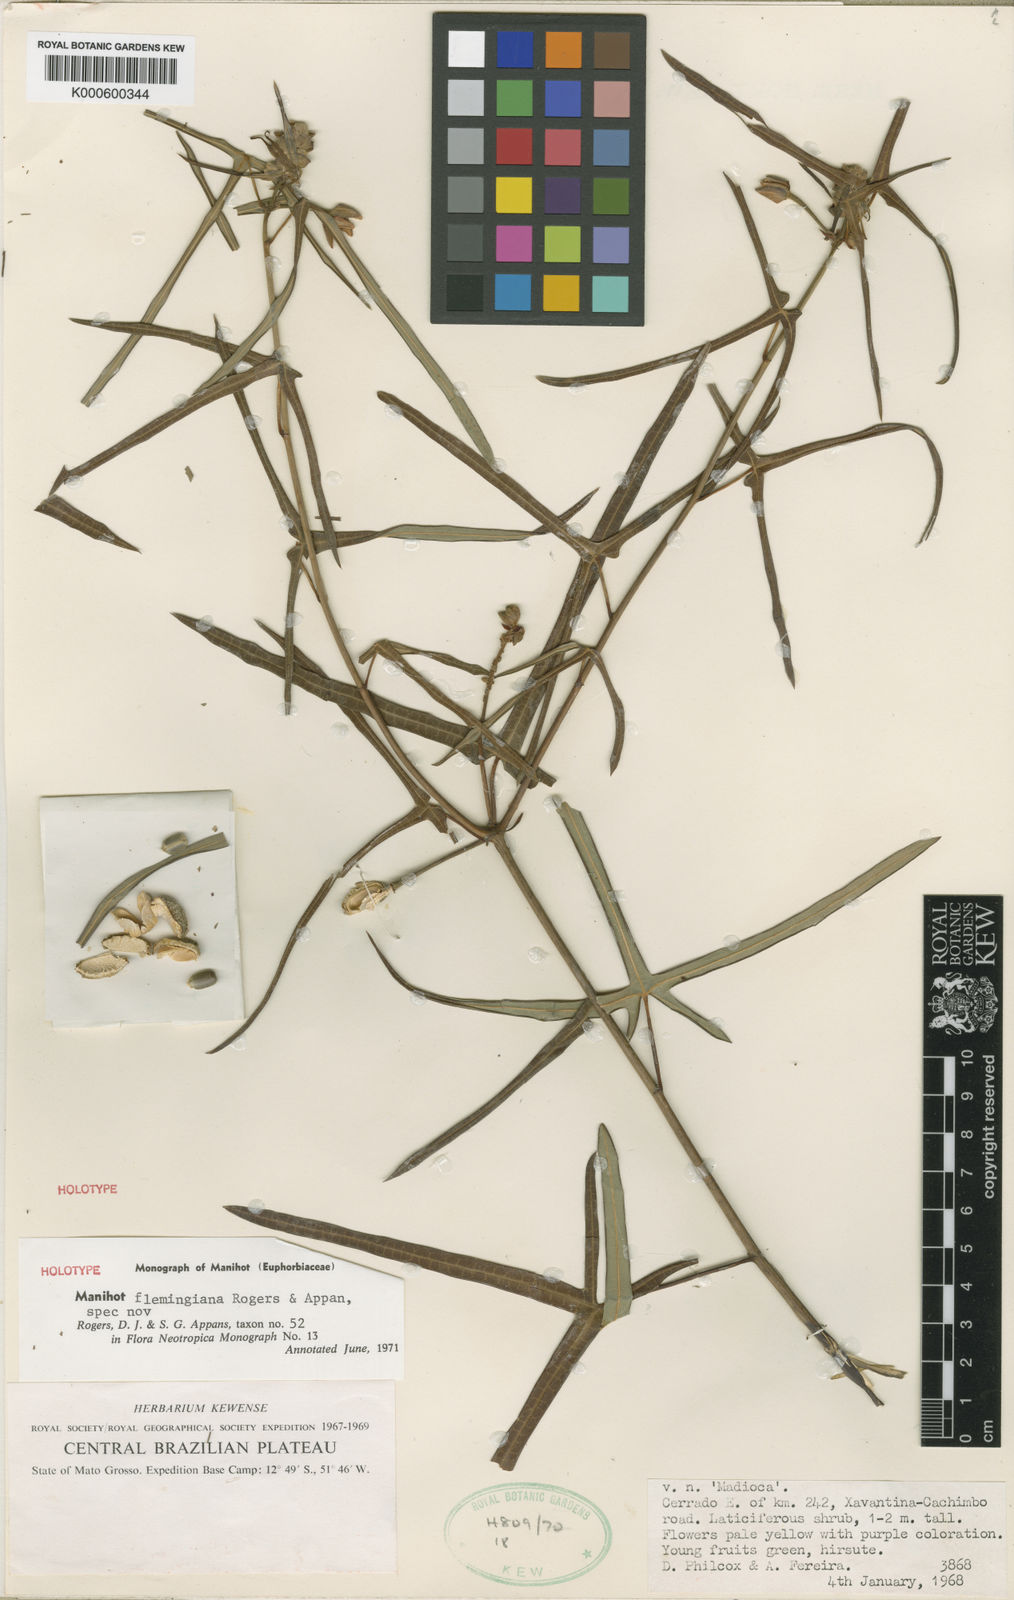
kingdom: Plantae
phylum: Tracheophyta
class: Magnoliopsida
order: Malpighiales
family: Euphorbiaceae
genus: Manihot
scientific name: Manihot flemingiana
